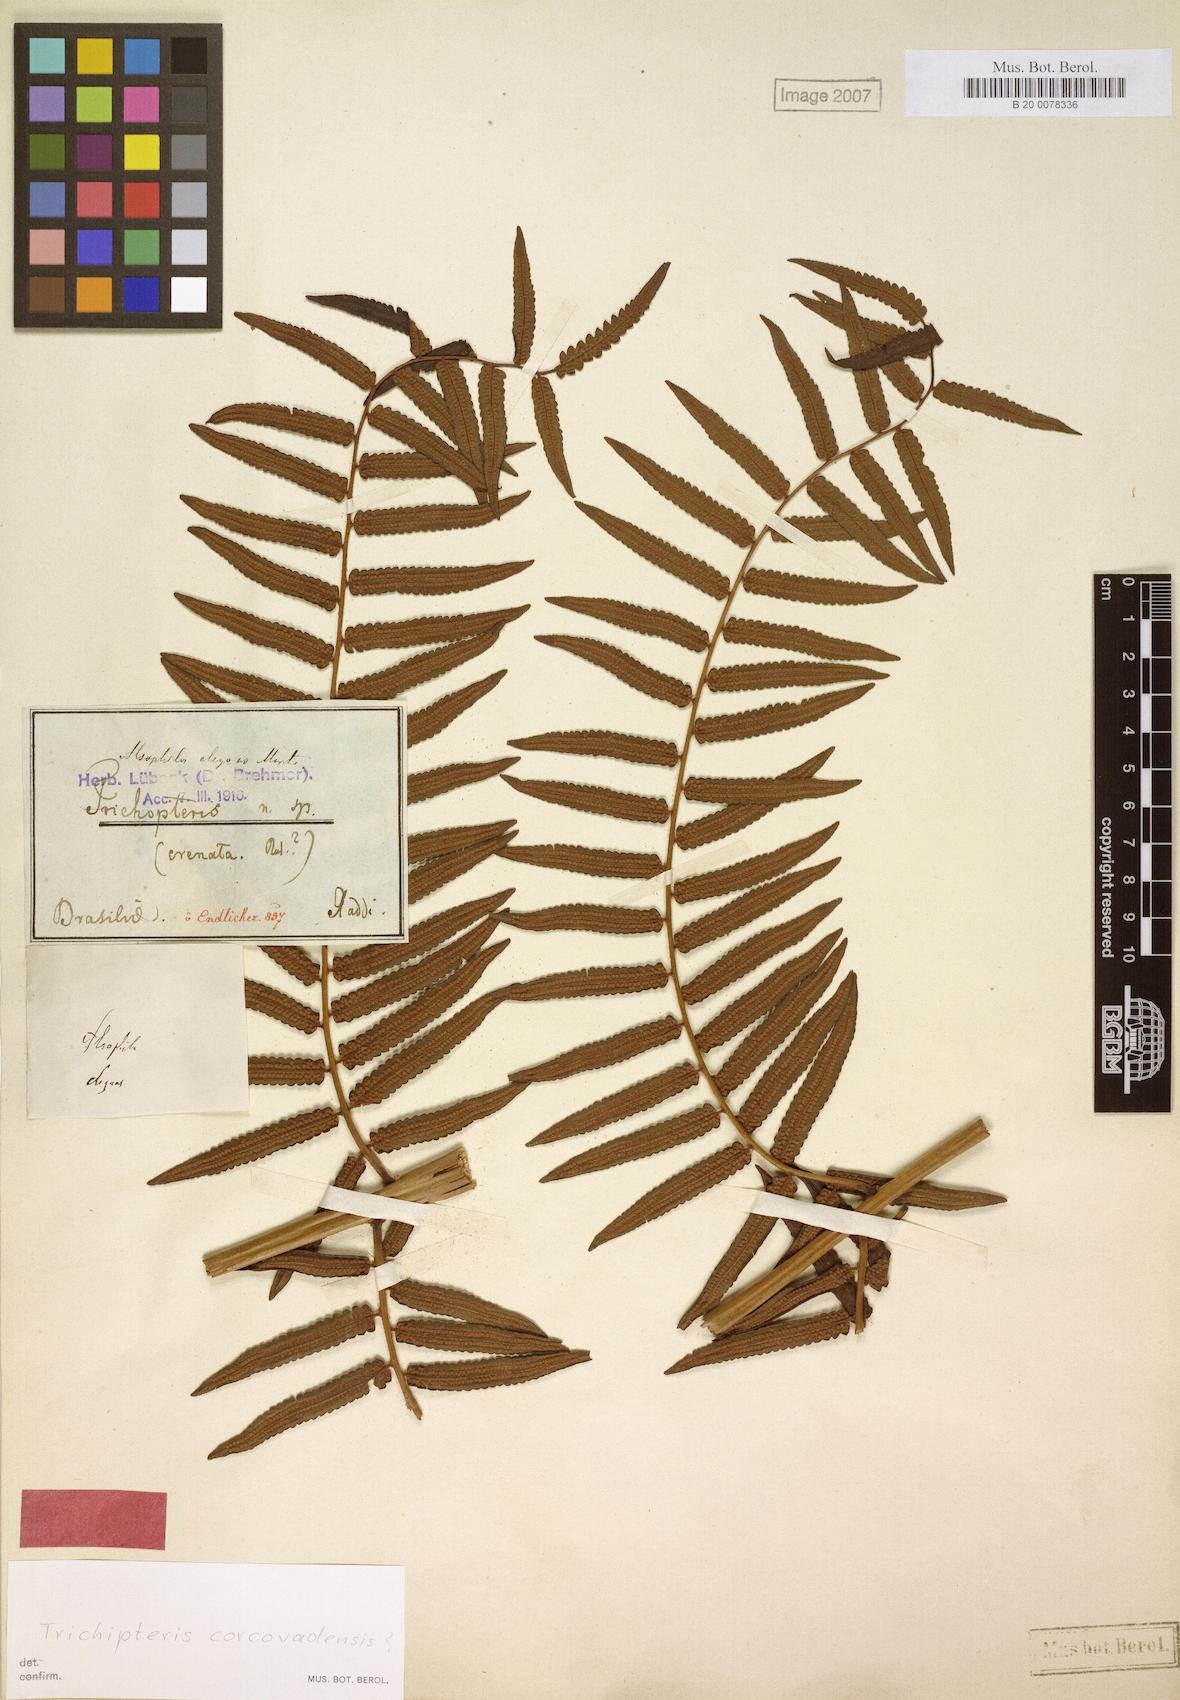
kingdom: Plantae
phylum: Tracheophyta
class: Polypodiopsida
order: Cyatheales
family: Cyatheaceae
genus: Cyathea
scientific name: Cyathea corcovadensis
